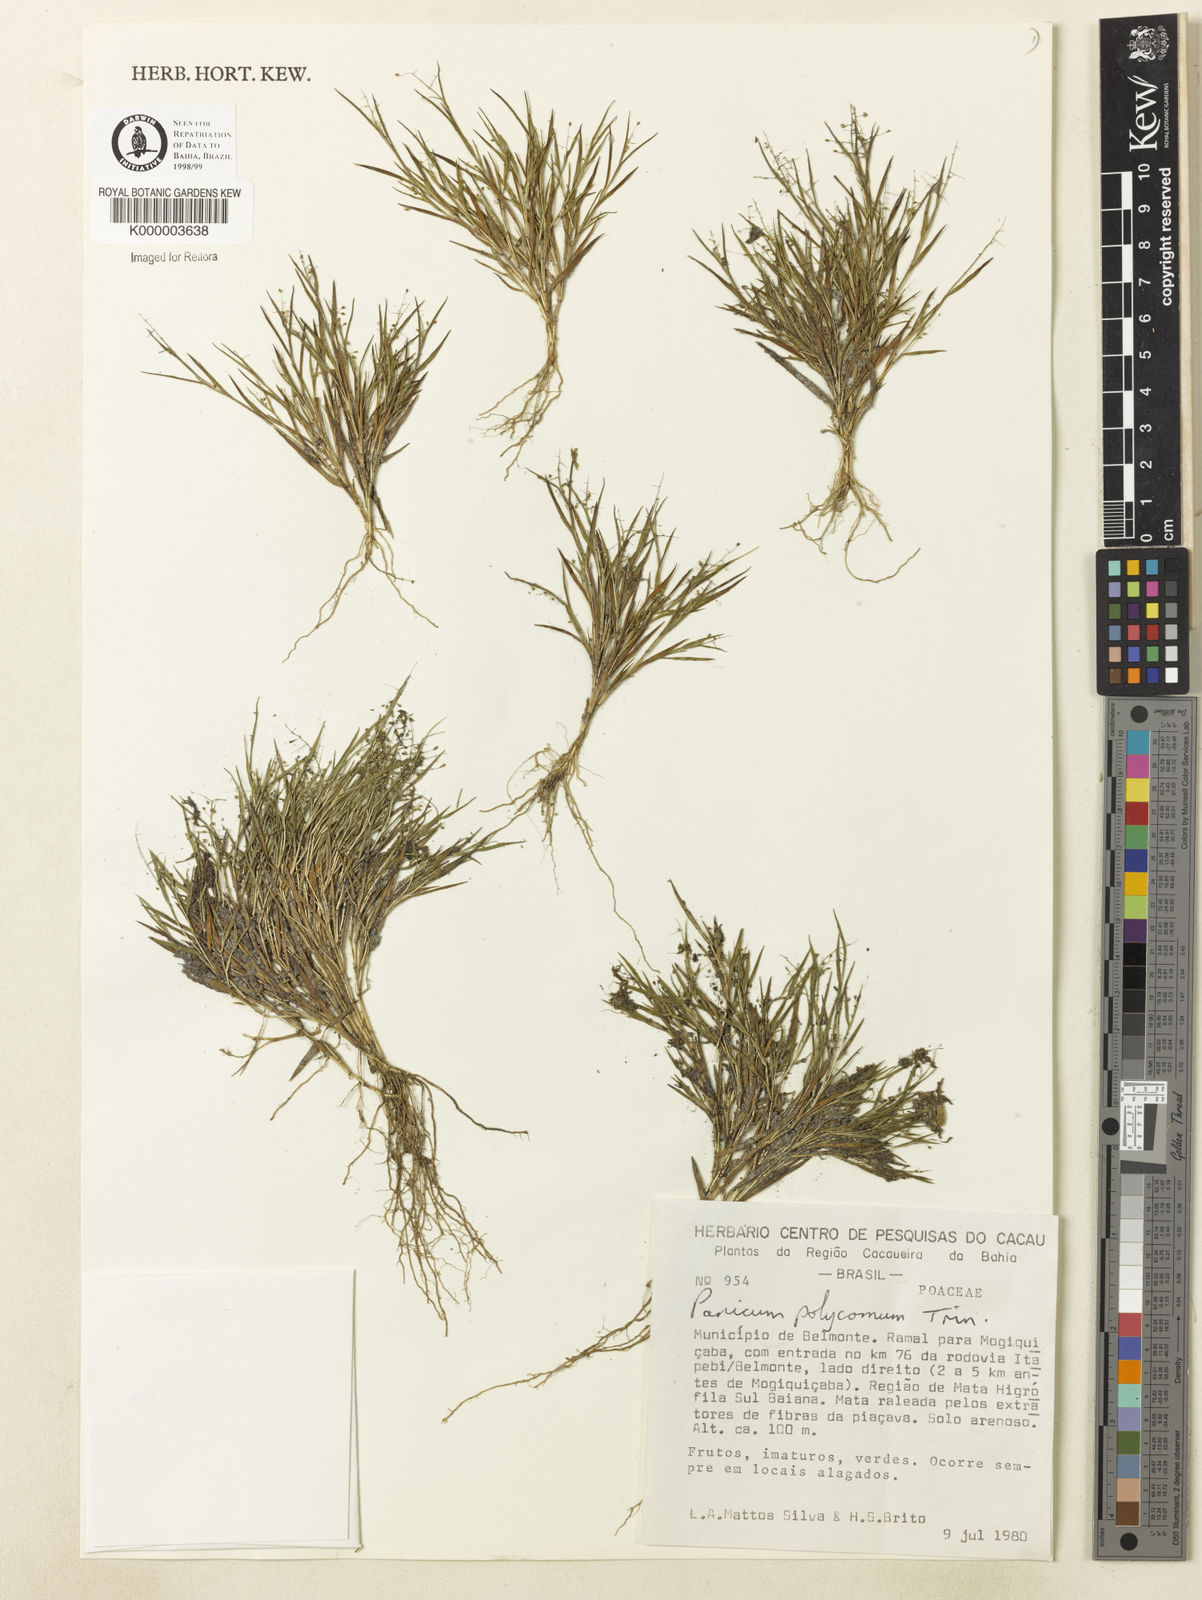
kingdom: Plantae
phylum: Tracheophyta
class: Liliopsida
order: Poales
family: Poaceae
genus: Trichanthecium
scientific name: Trichanthecium polycomum
